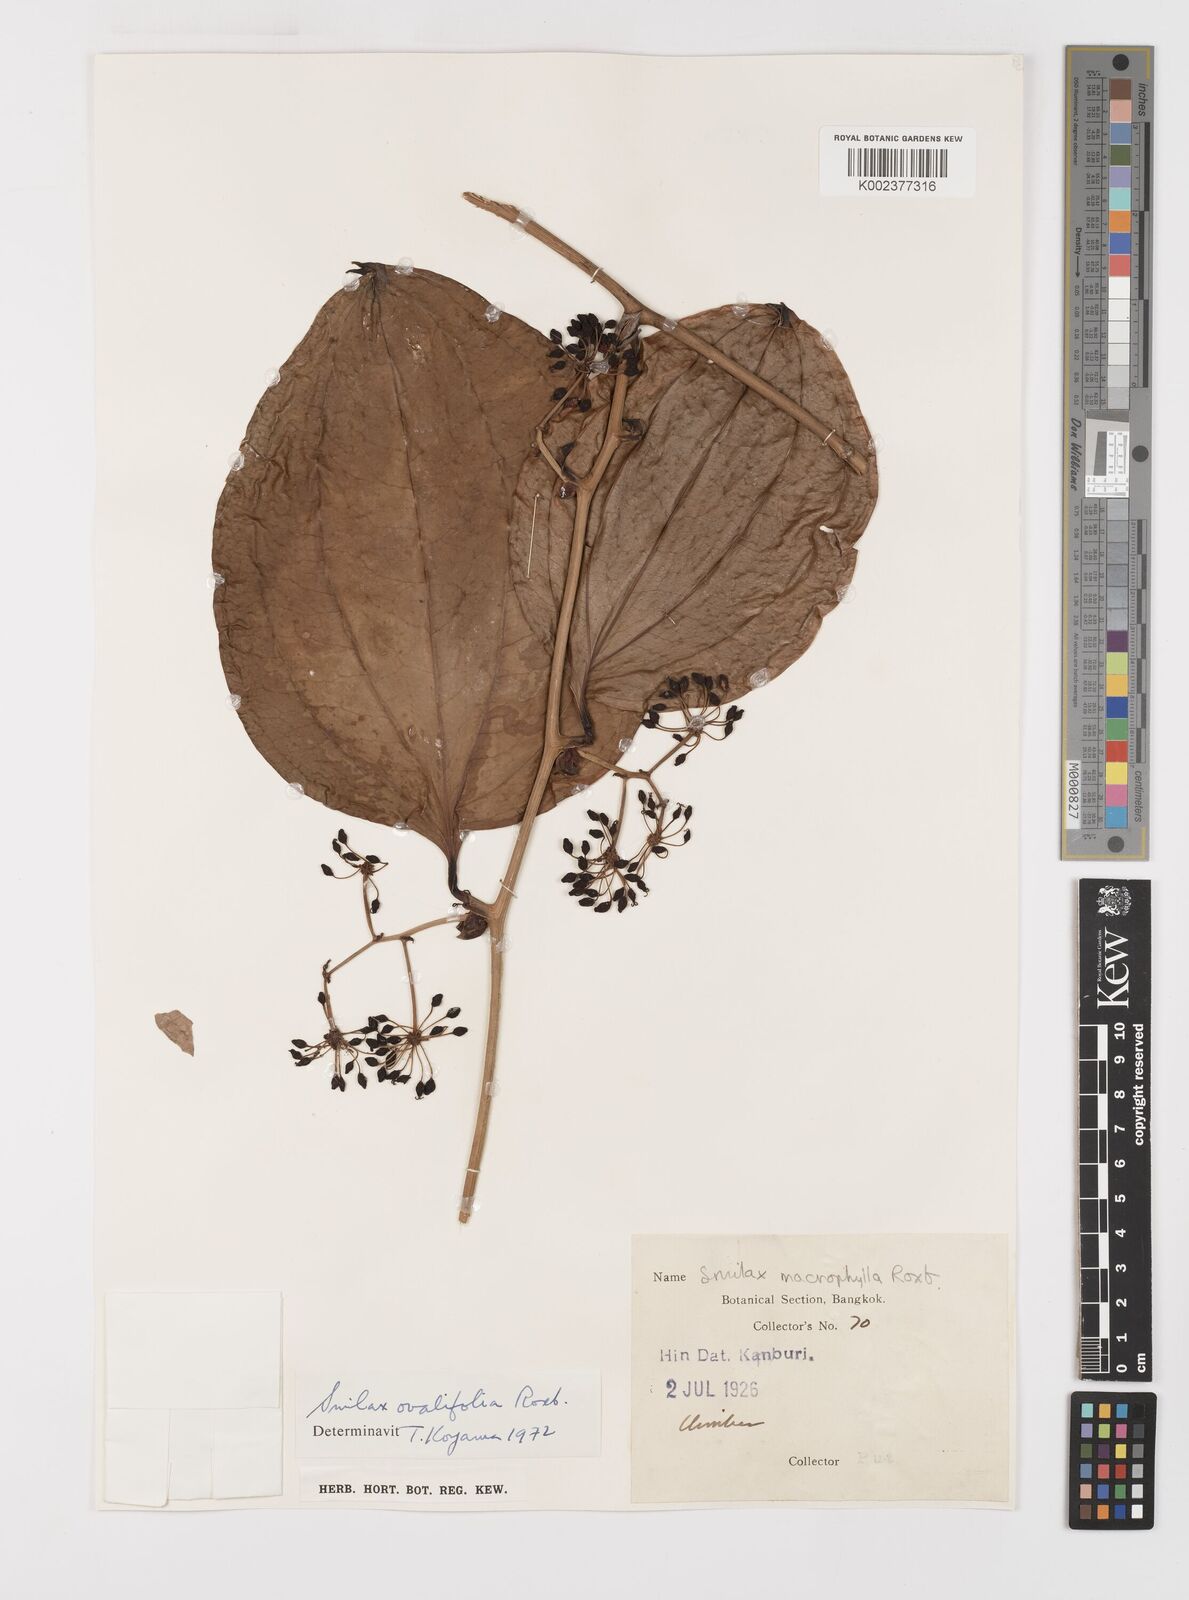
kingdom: Plantae
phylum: Tracheophyta
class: Liliopsida
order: Liliales
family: Smilacaceae
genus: Smilax
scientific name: Smilax ovalifolia
